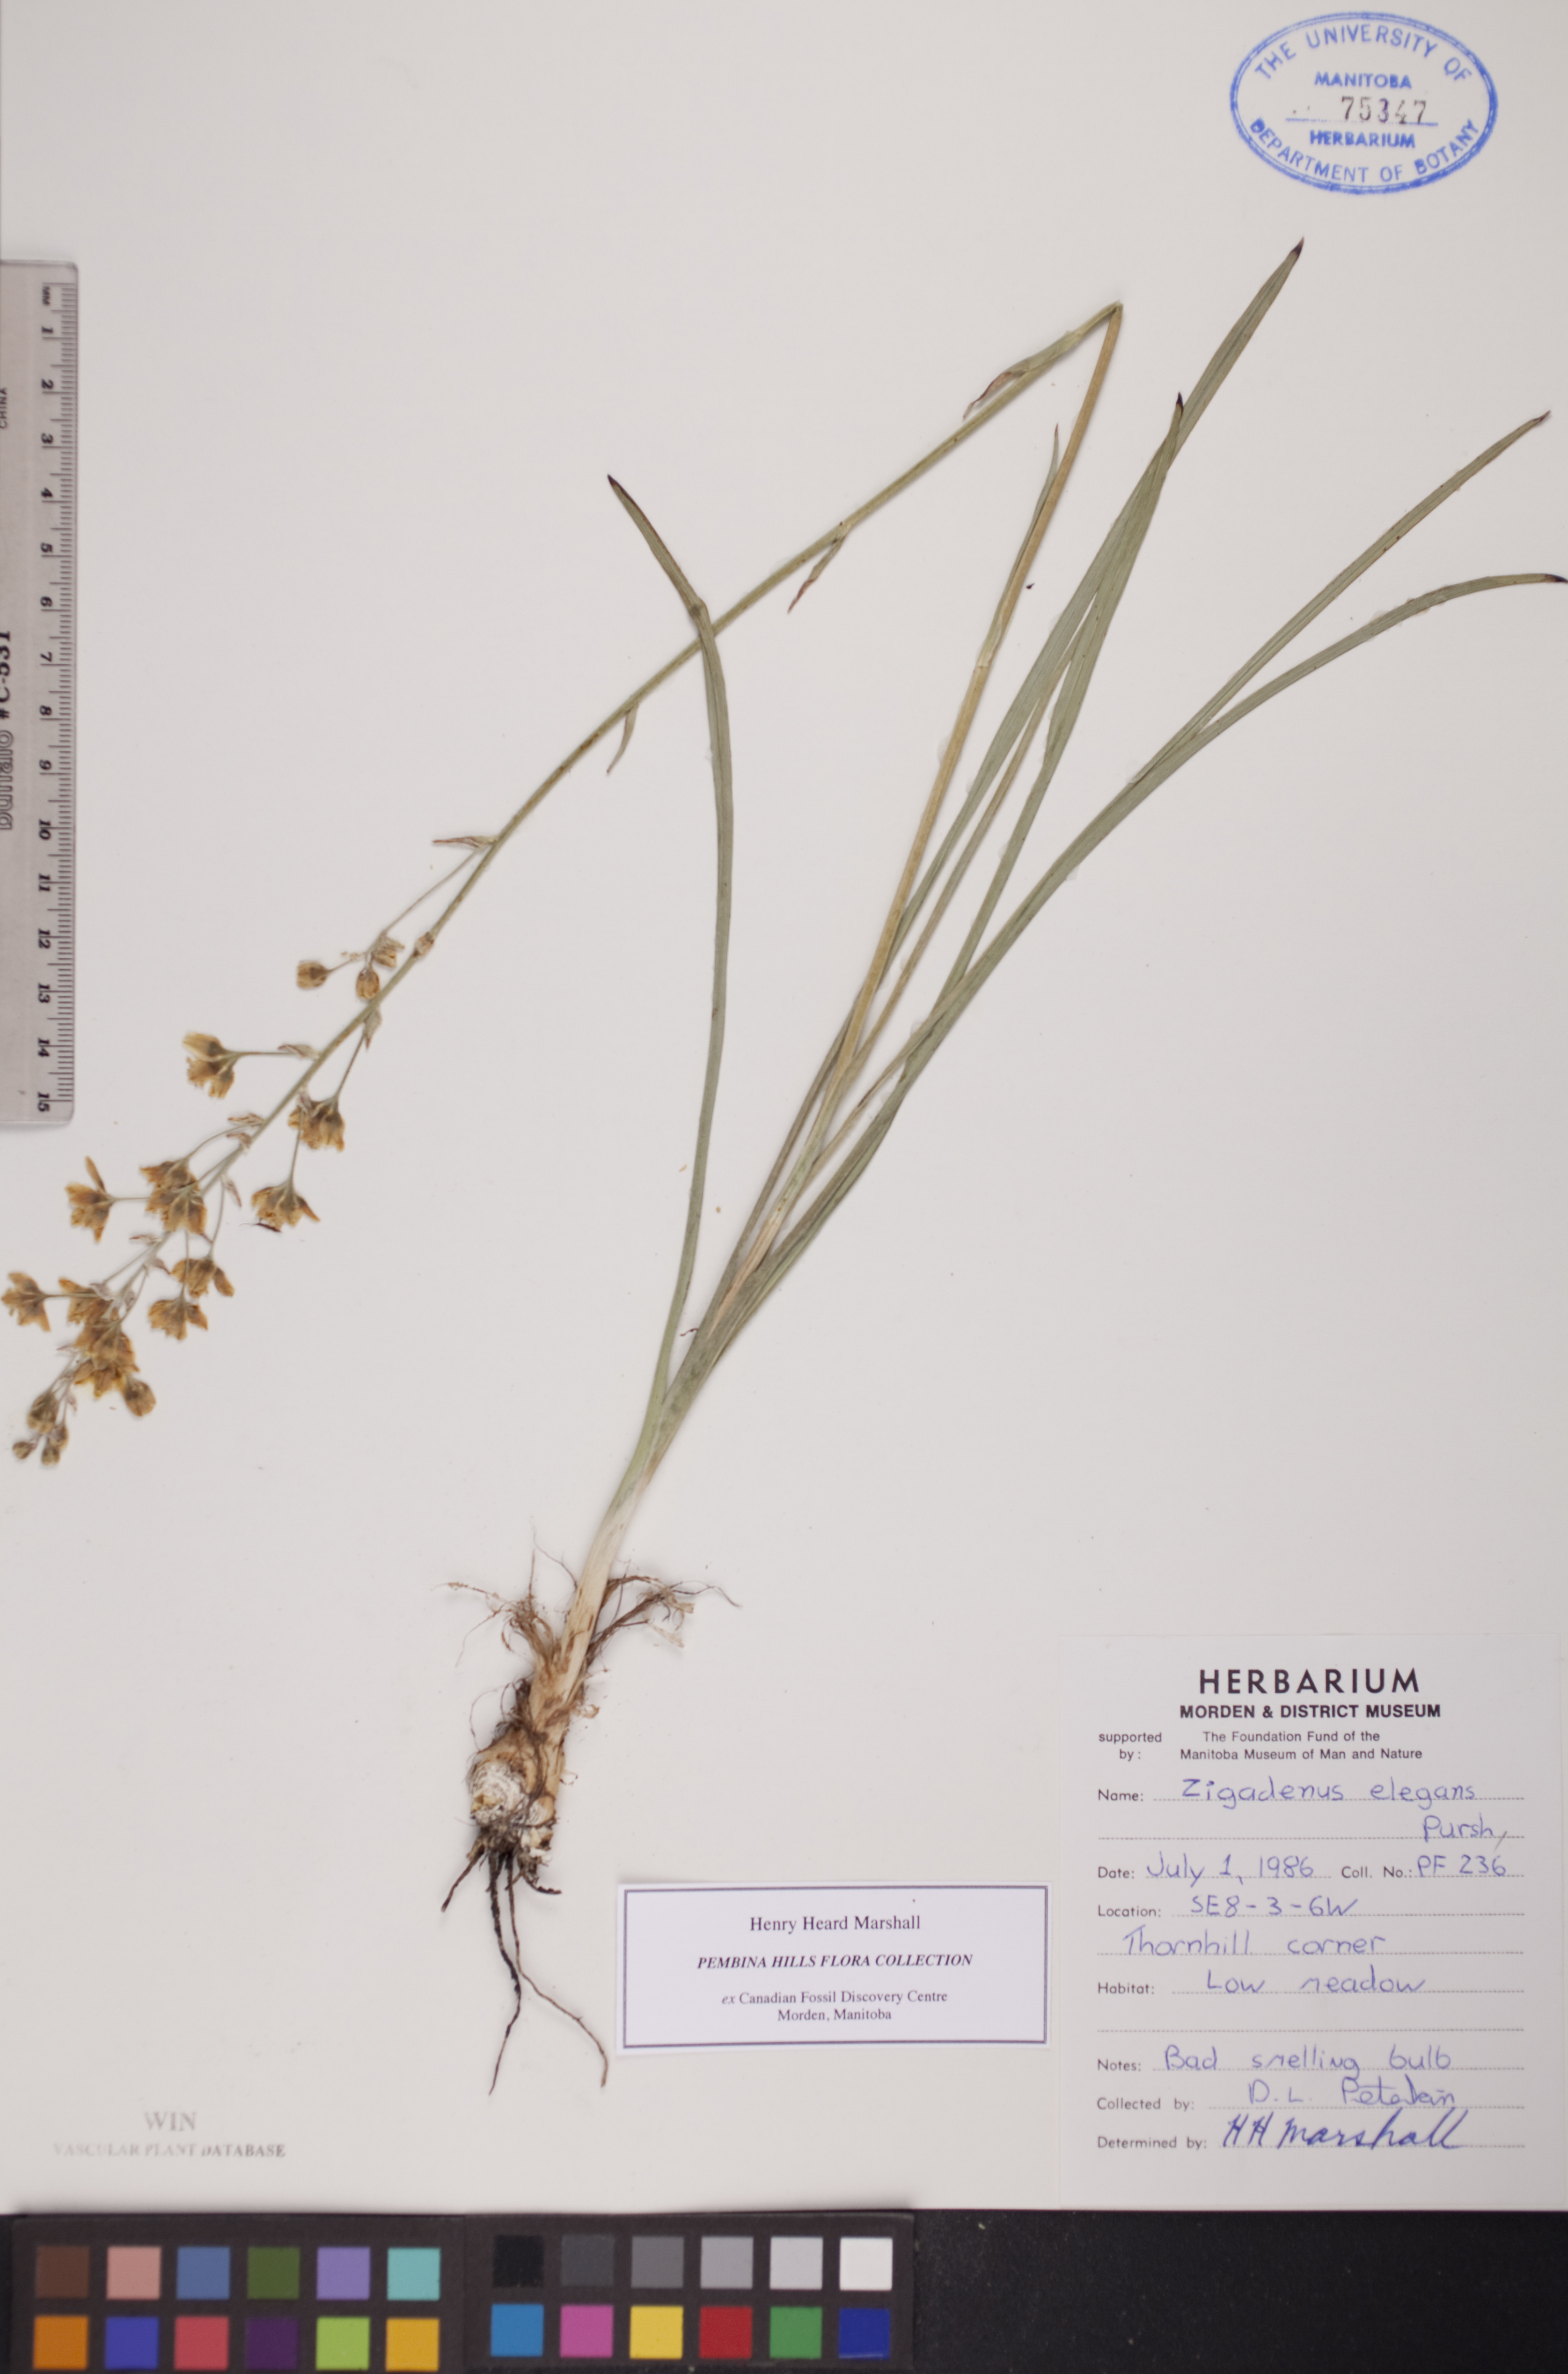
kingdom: Plantae
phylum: Tracheophyta
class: Liliopsida
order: Liliales
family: Melanthiaceae
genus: Anticlea
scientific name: Anticlea elegans
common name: Mountain death camas
